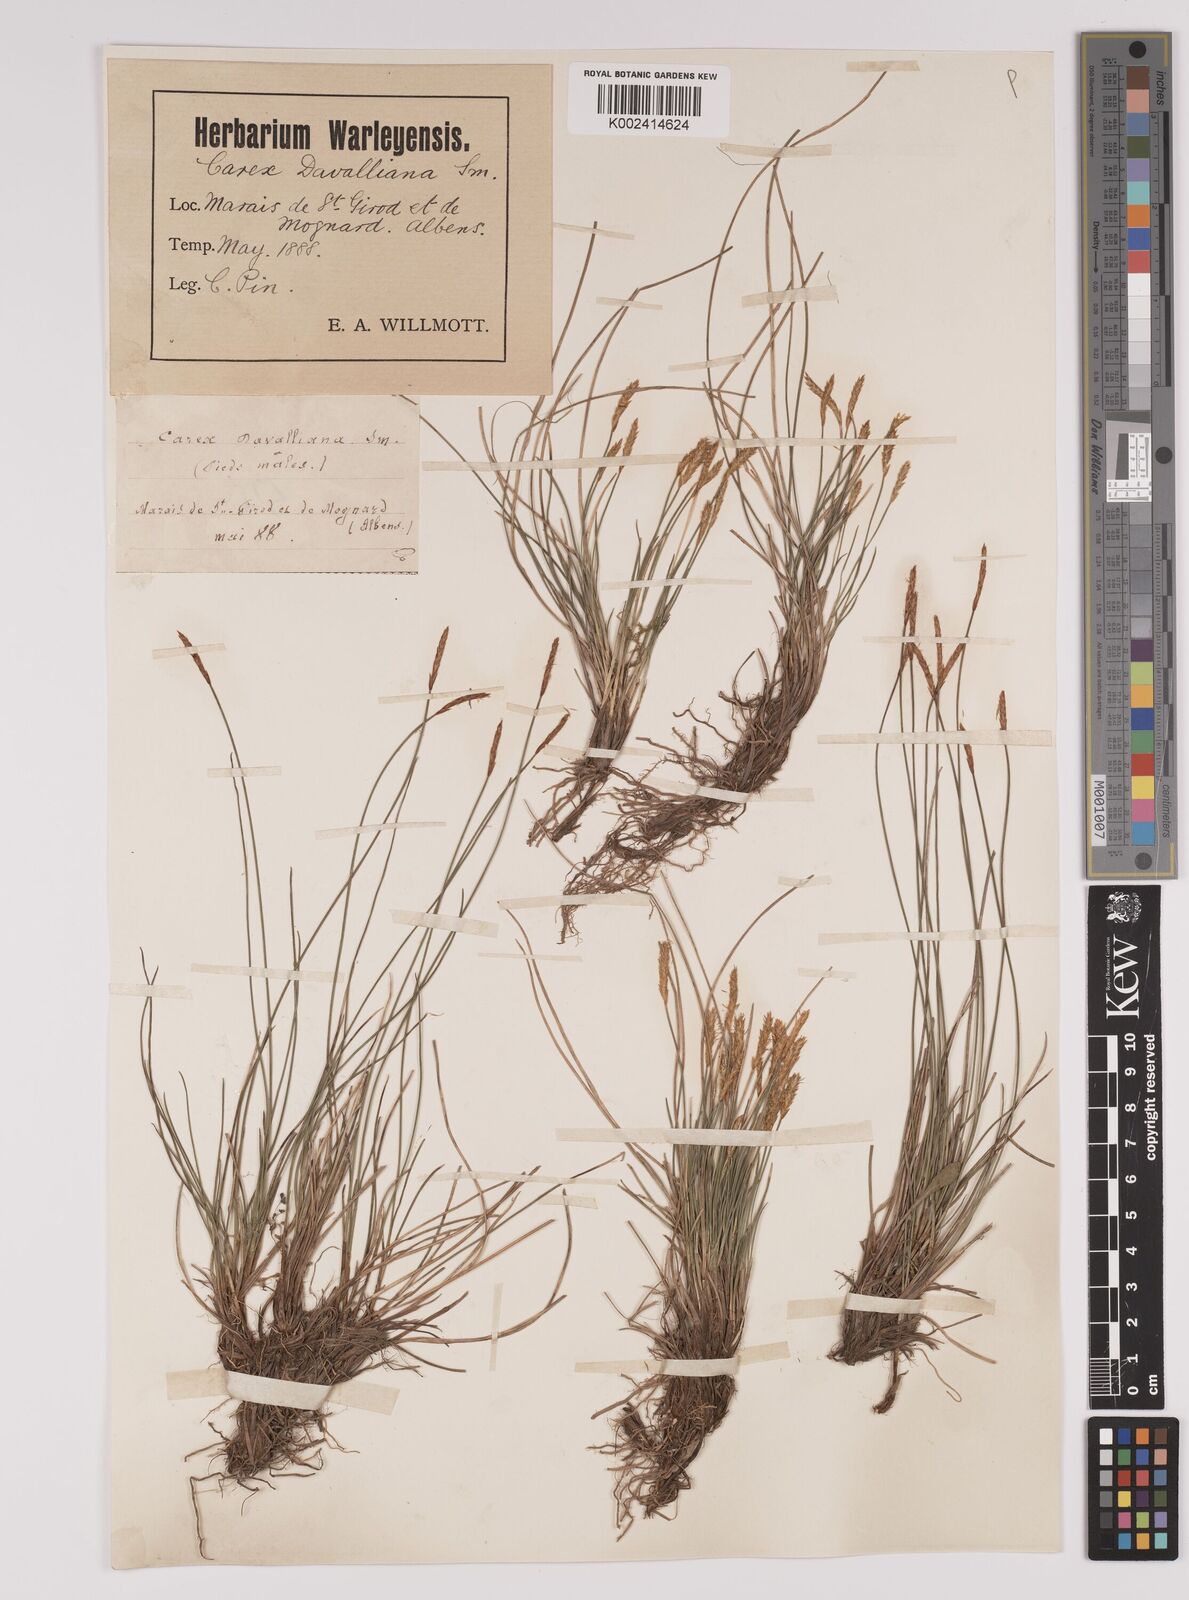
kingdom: Plantae
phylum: Tracheophyta
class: Liliopsida
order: Poales
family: Cyperaceae
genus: Carex
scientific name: Carex davalliana
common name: Davall's sedge
